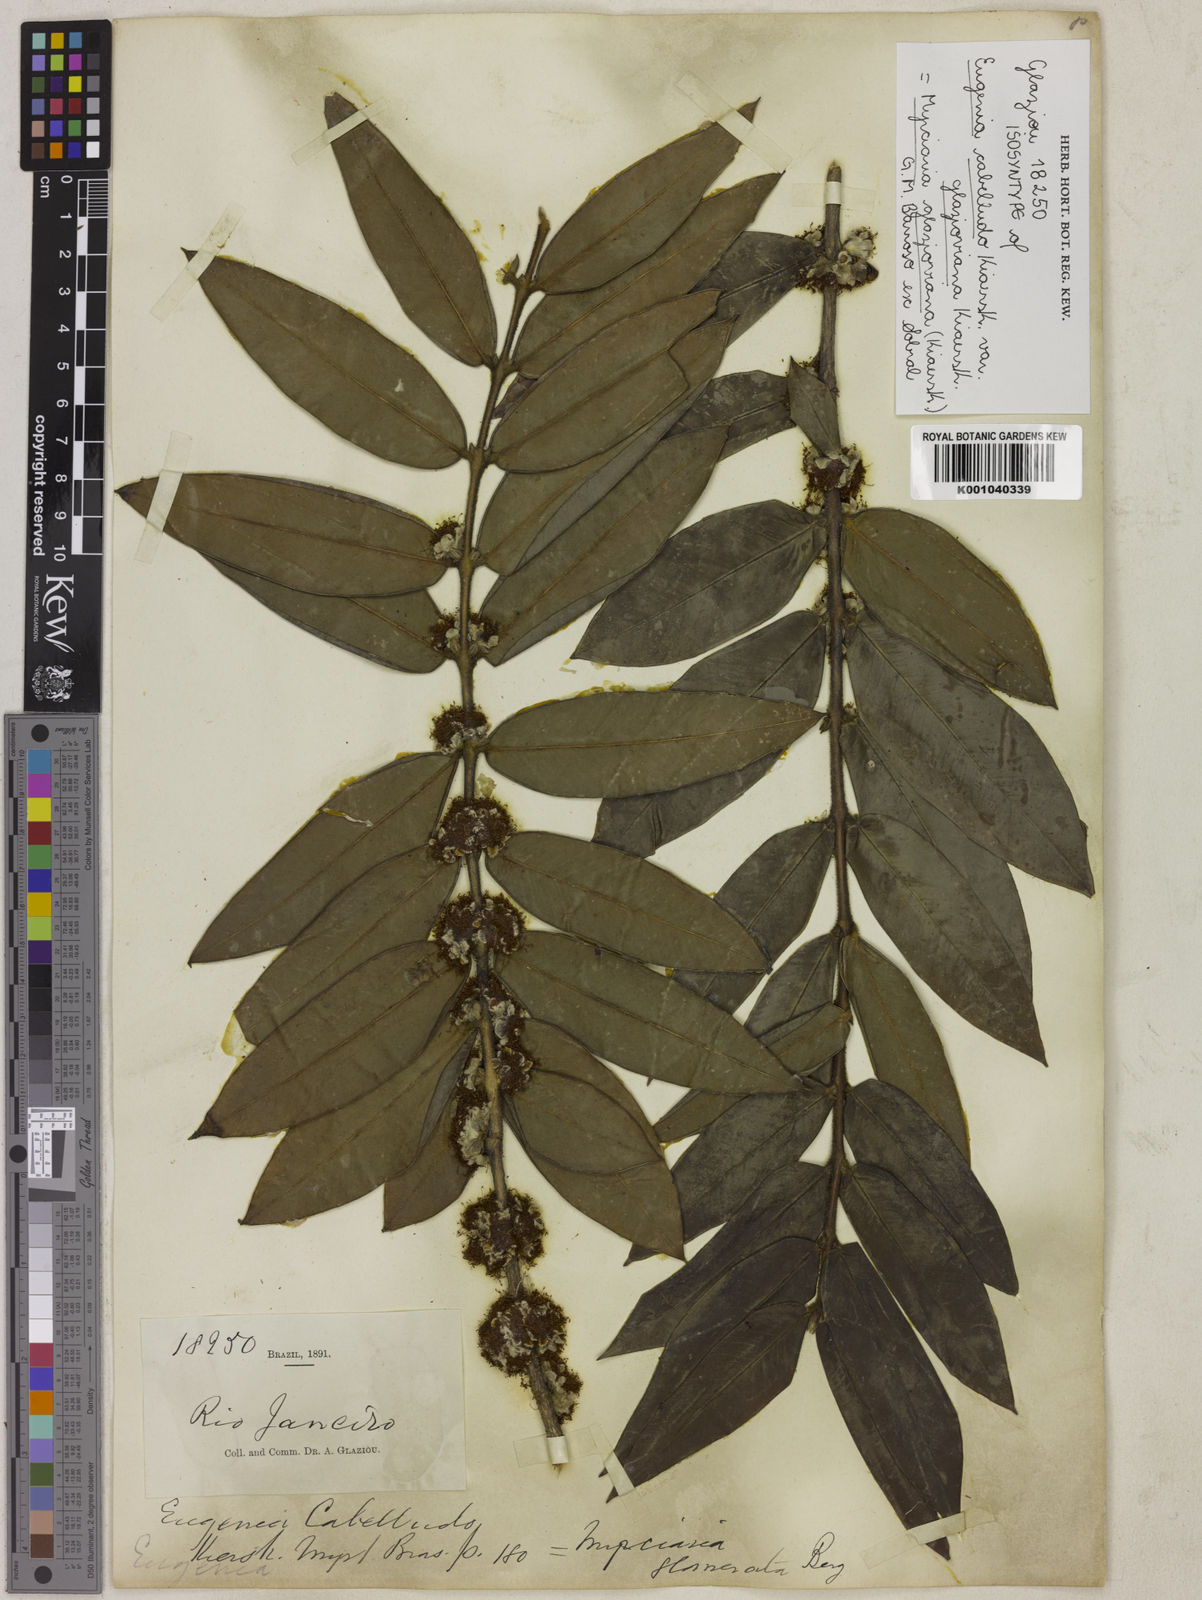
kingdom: Plantae
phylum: Tracheophyta
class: Magnoliopsida
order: Myrtales
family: Myrtaceae
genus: Myrciaria
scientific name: Myrciaria glazioviana
